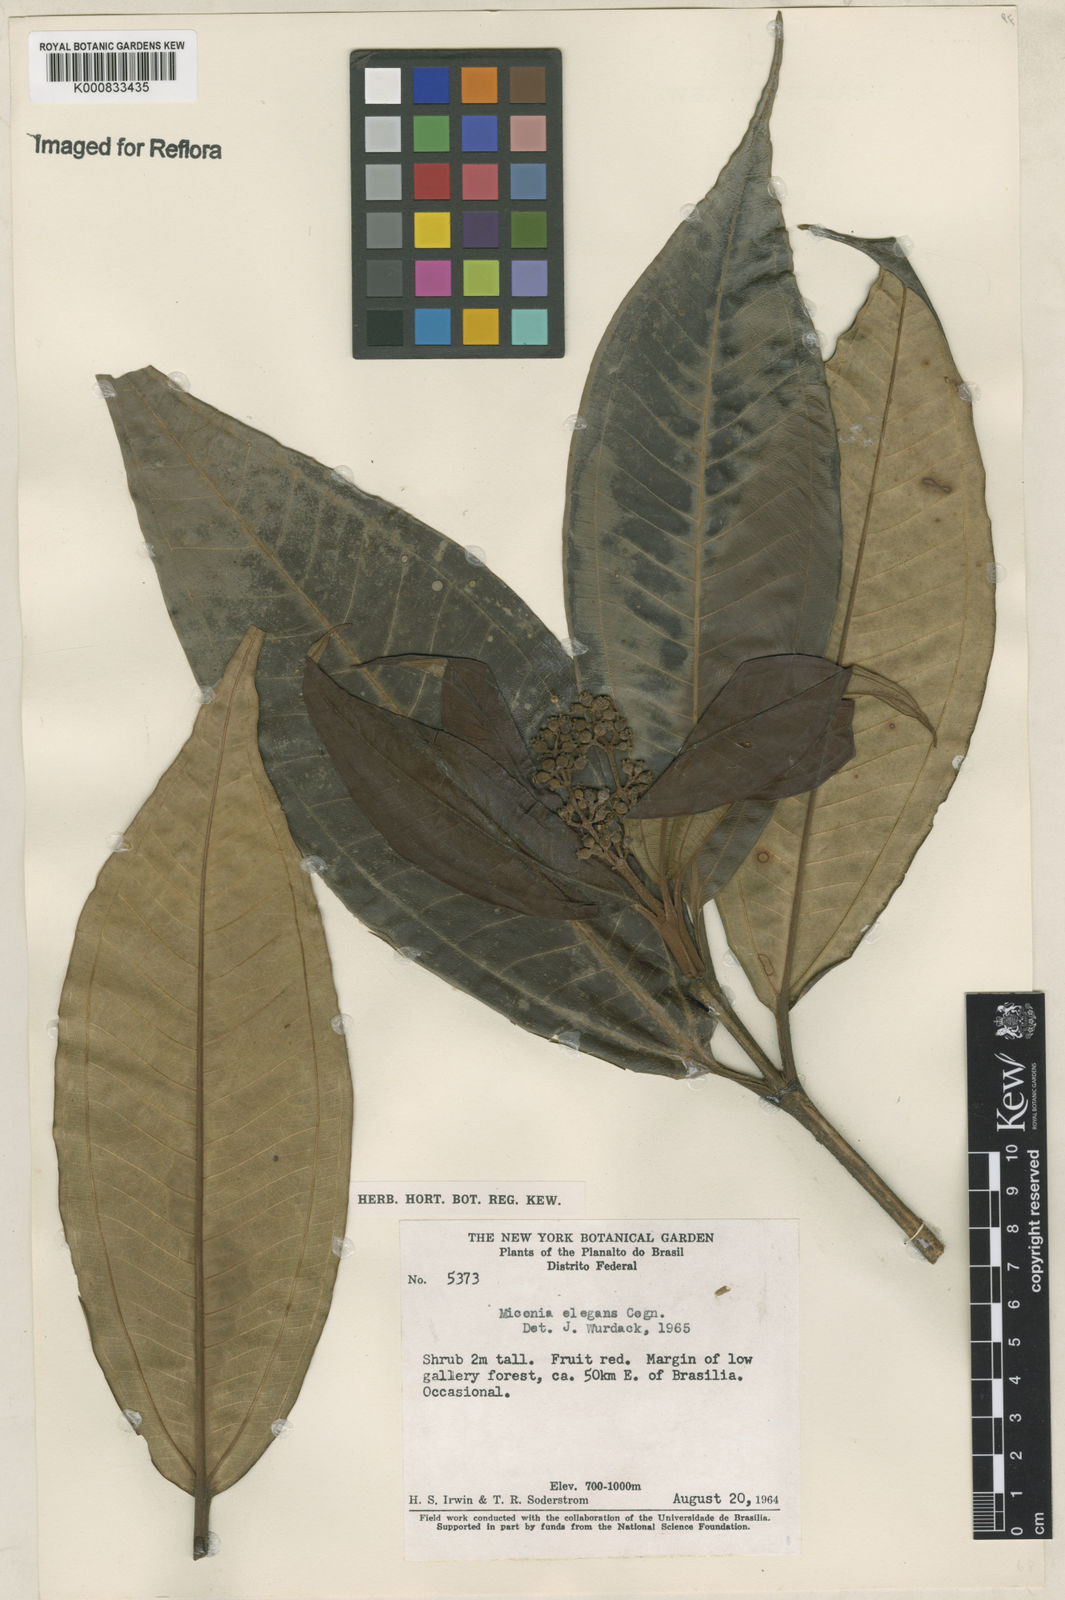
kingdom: Plantae
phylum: Tracheophyta
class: Magnoliopsida
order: Myrtales
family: Melastomataceae
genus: Miconia
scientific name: Miconia elegans
